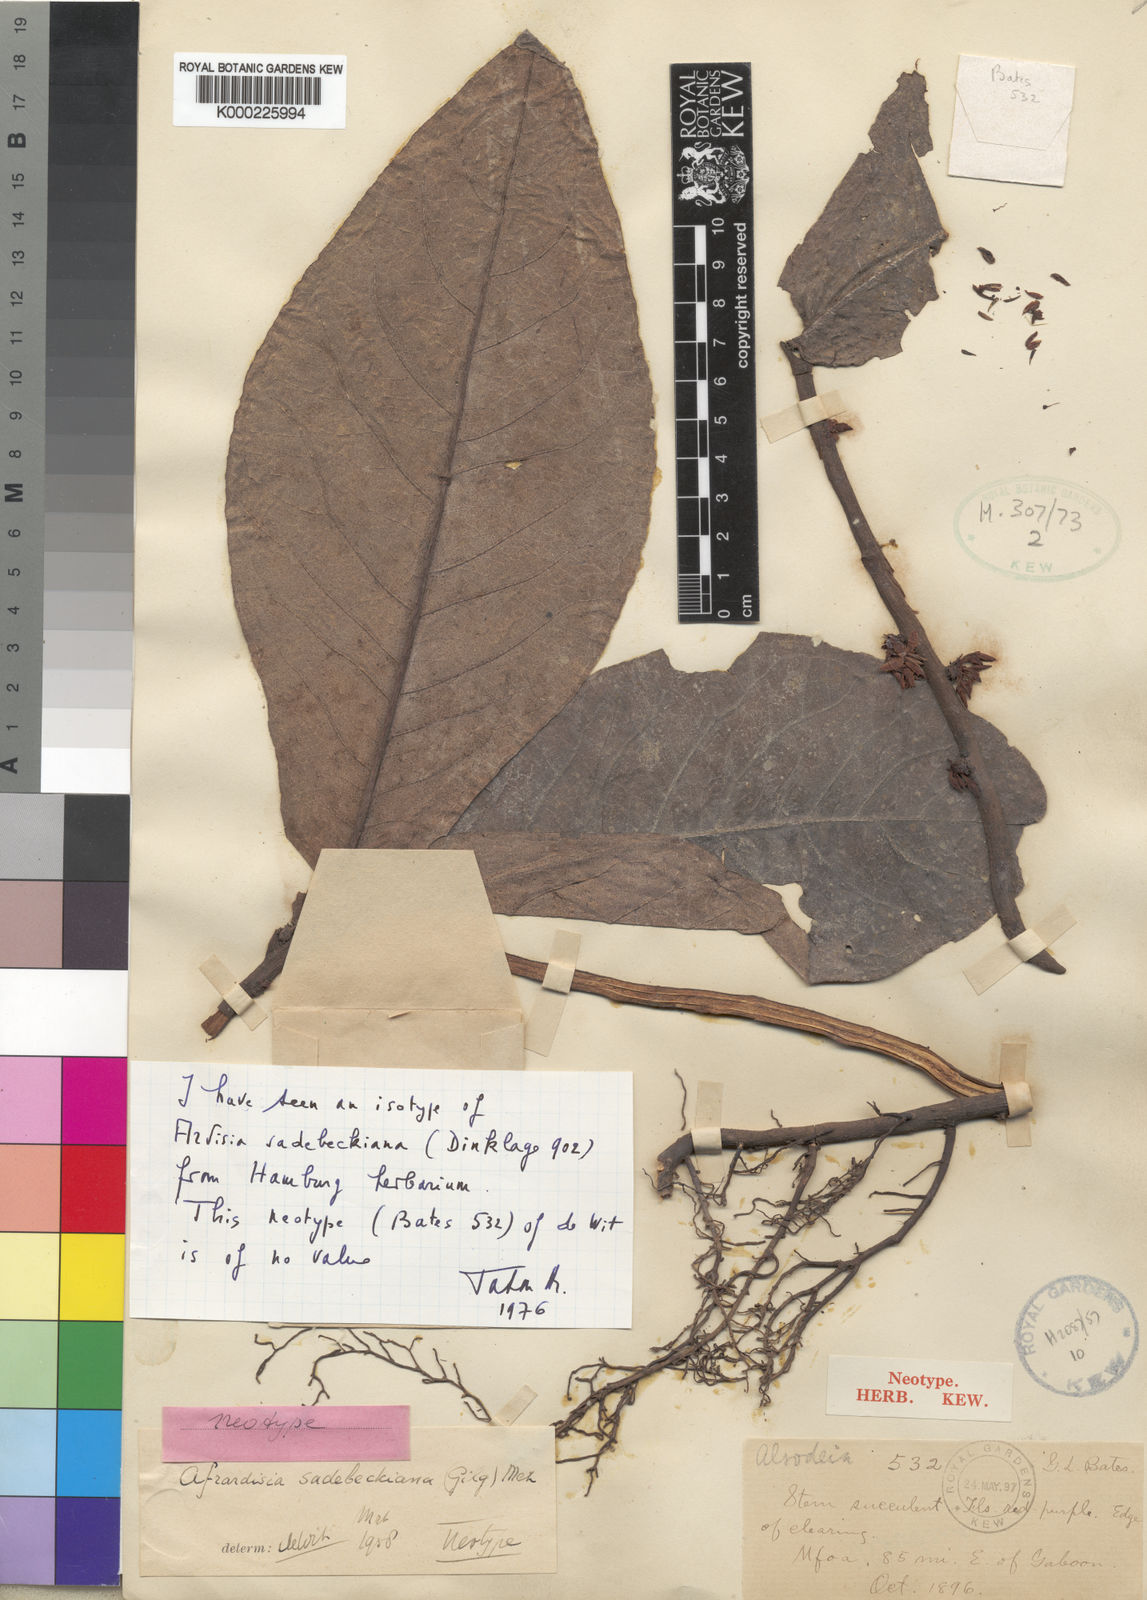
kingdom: Plantae
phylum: Tracheophyta
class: Magnoliopsida
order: Ericales
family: Primulaceae
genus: Ardisia
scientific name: Ardisia sadebeckiana
